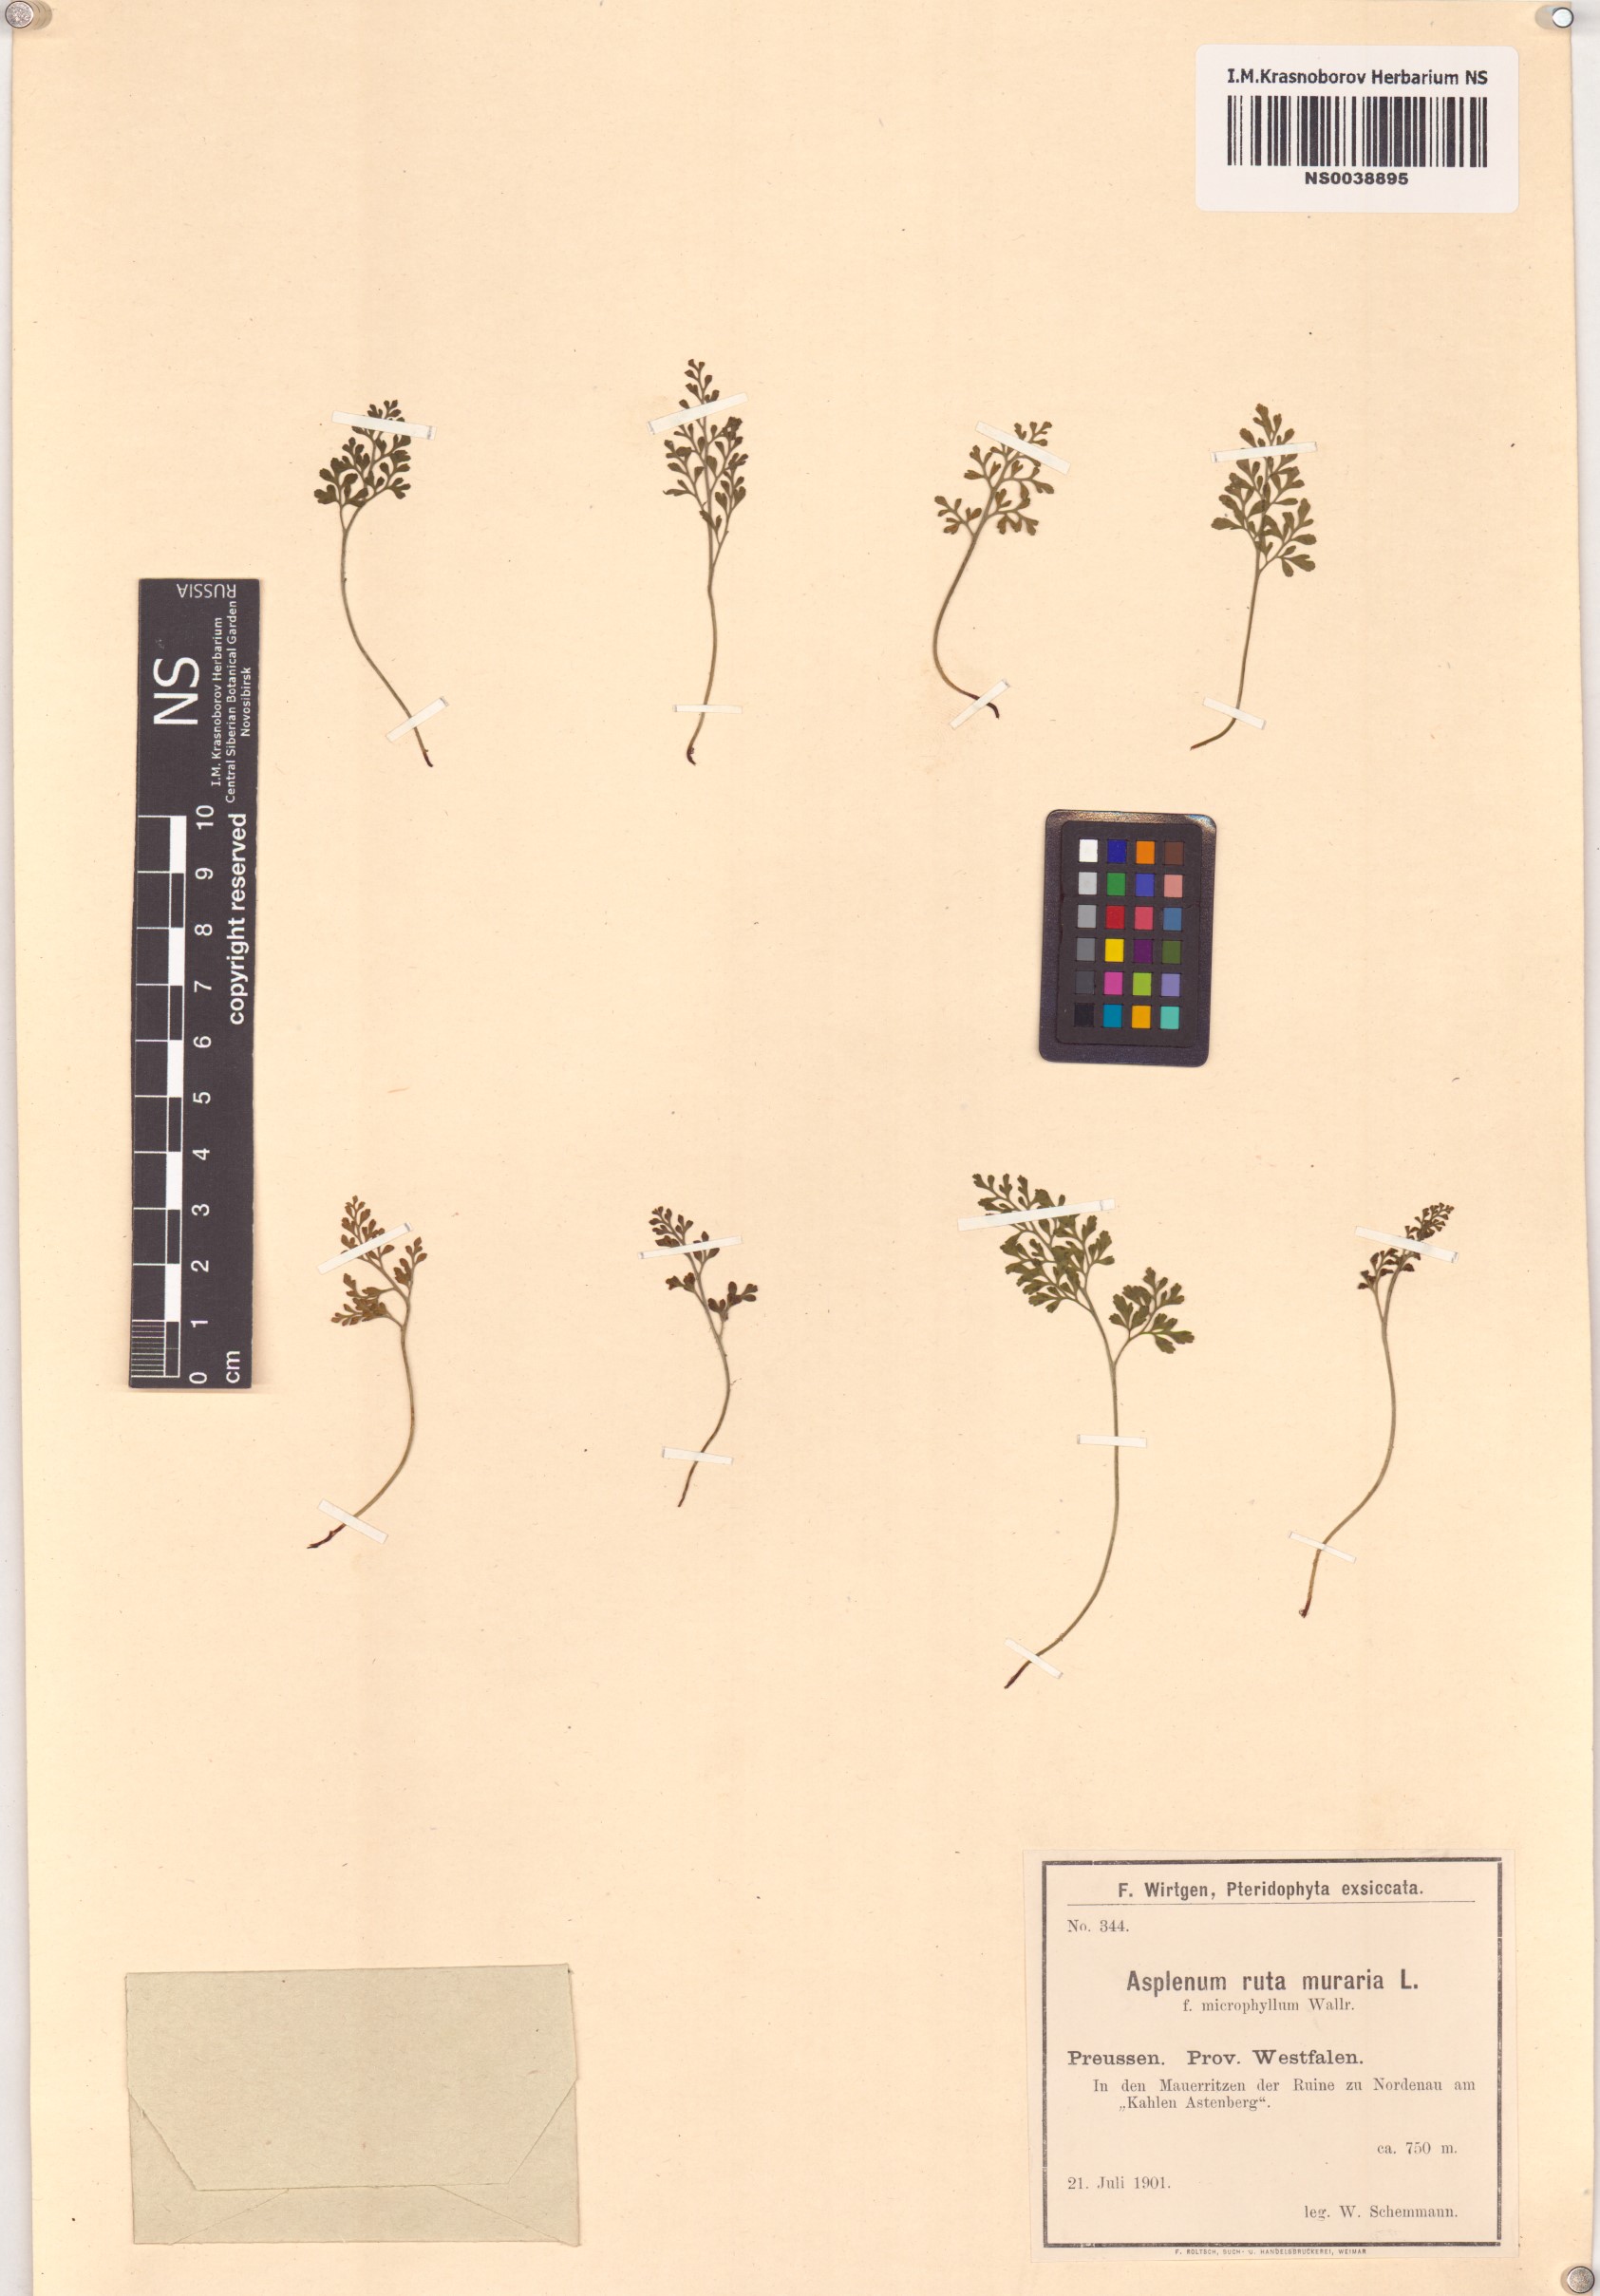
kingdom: Plantae
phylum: Tracheophyta
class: Polypodiopsida
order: Polypodiales
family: Aspleniaceae
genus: Asplenium
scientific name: Asplenium ruta-muraria
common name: Wall-rue
